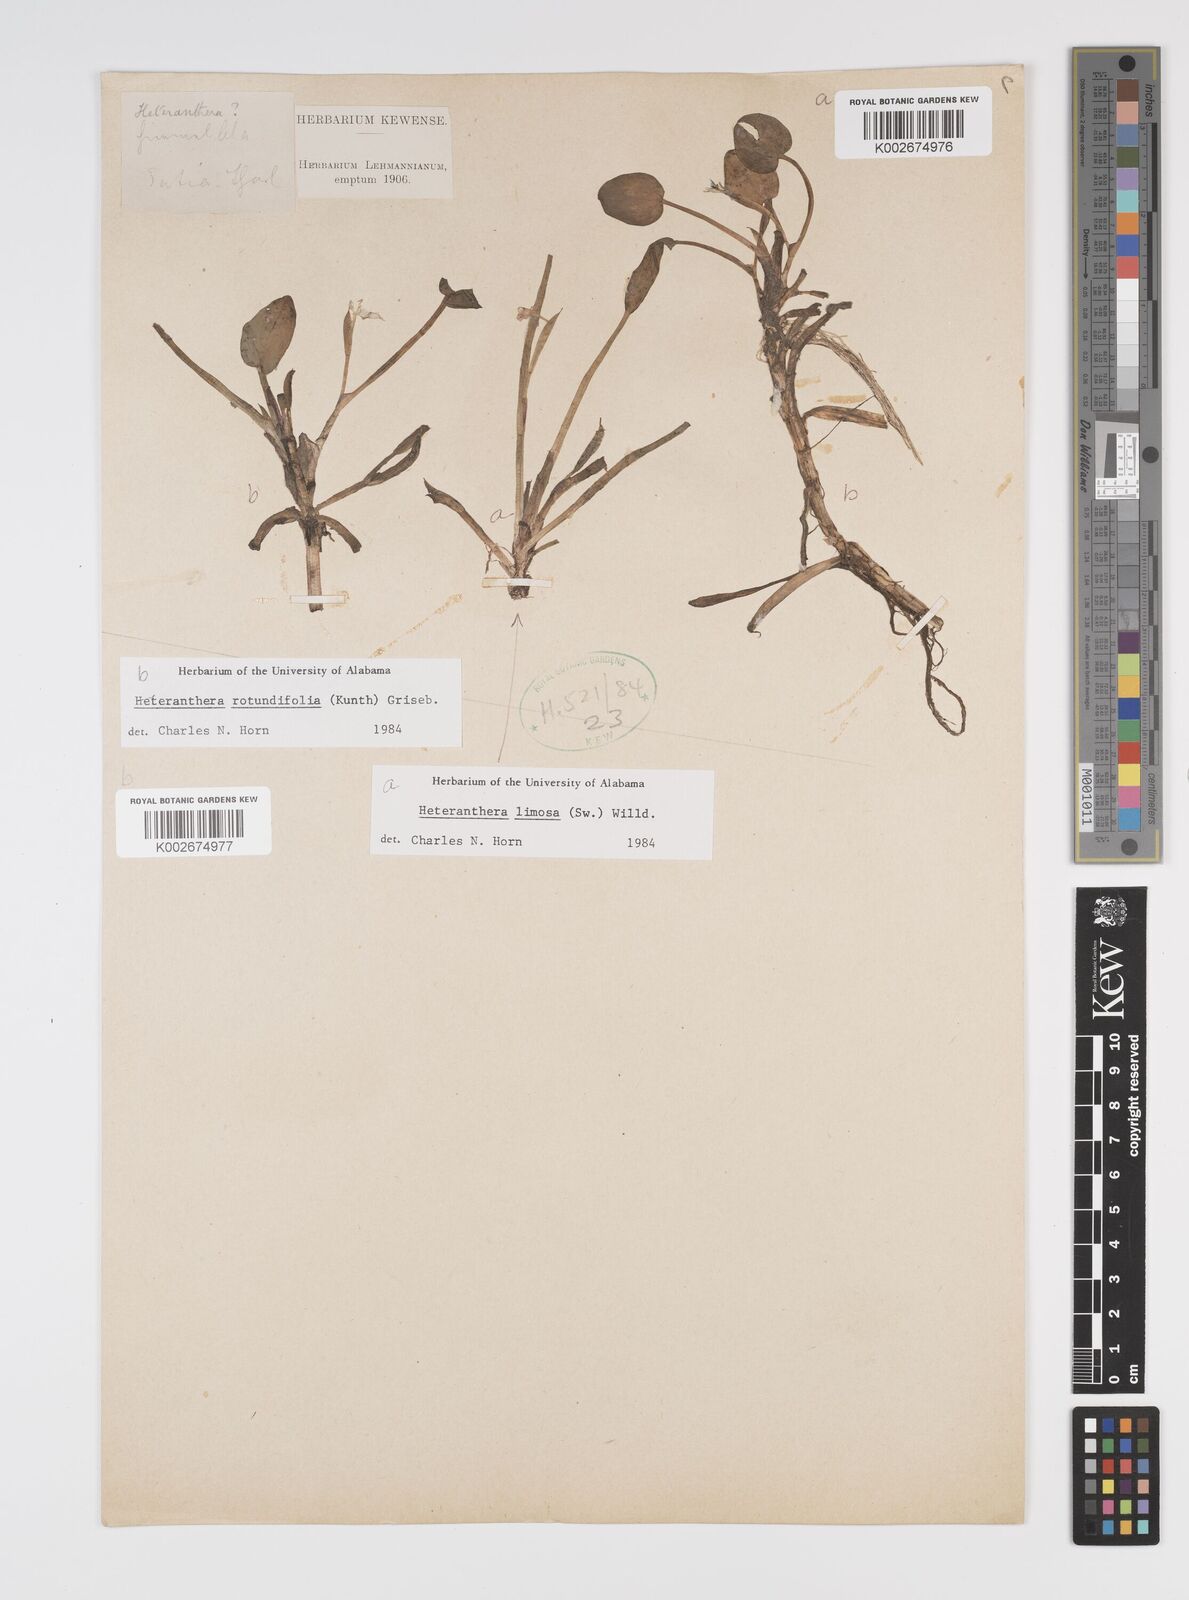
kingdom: Plantae
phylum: Tracheophyta
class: Liliopsida
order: Commelinales
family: Pontederiaceae
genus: Heteranthera
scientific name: Heteranthera rotundifolia
